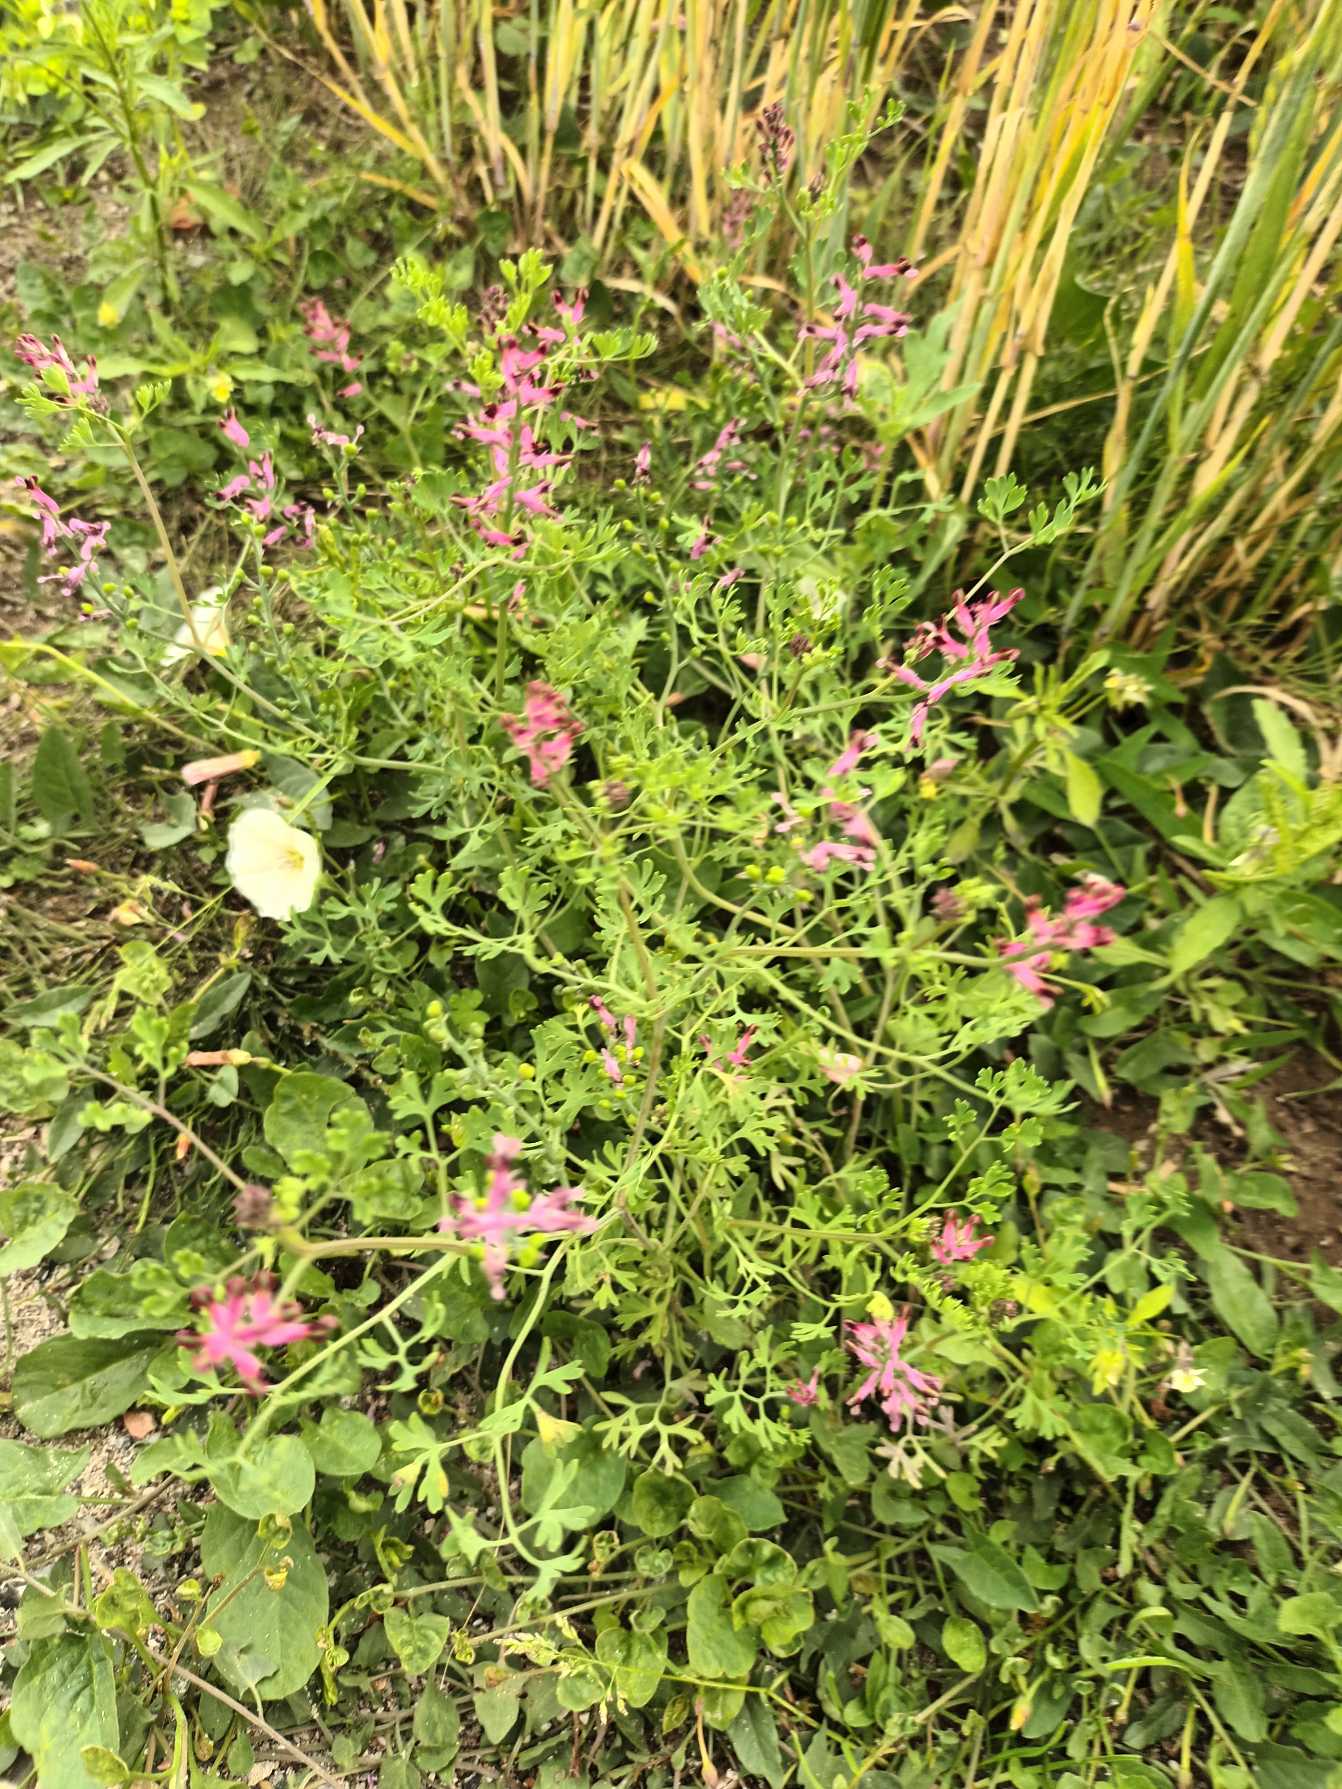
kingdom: Plantae
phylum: Tracheophyta
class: Magnoliopsida
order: Ranunculales
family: Papaveraceae
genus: Fumaria
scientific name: Fumaria officinalis
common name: Læge-jordrøg
